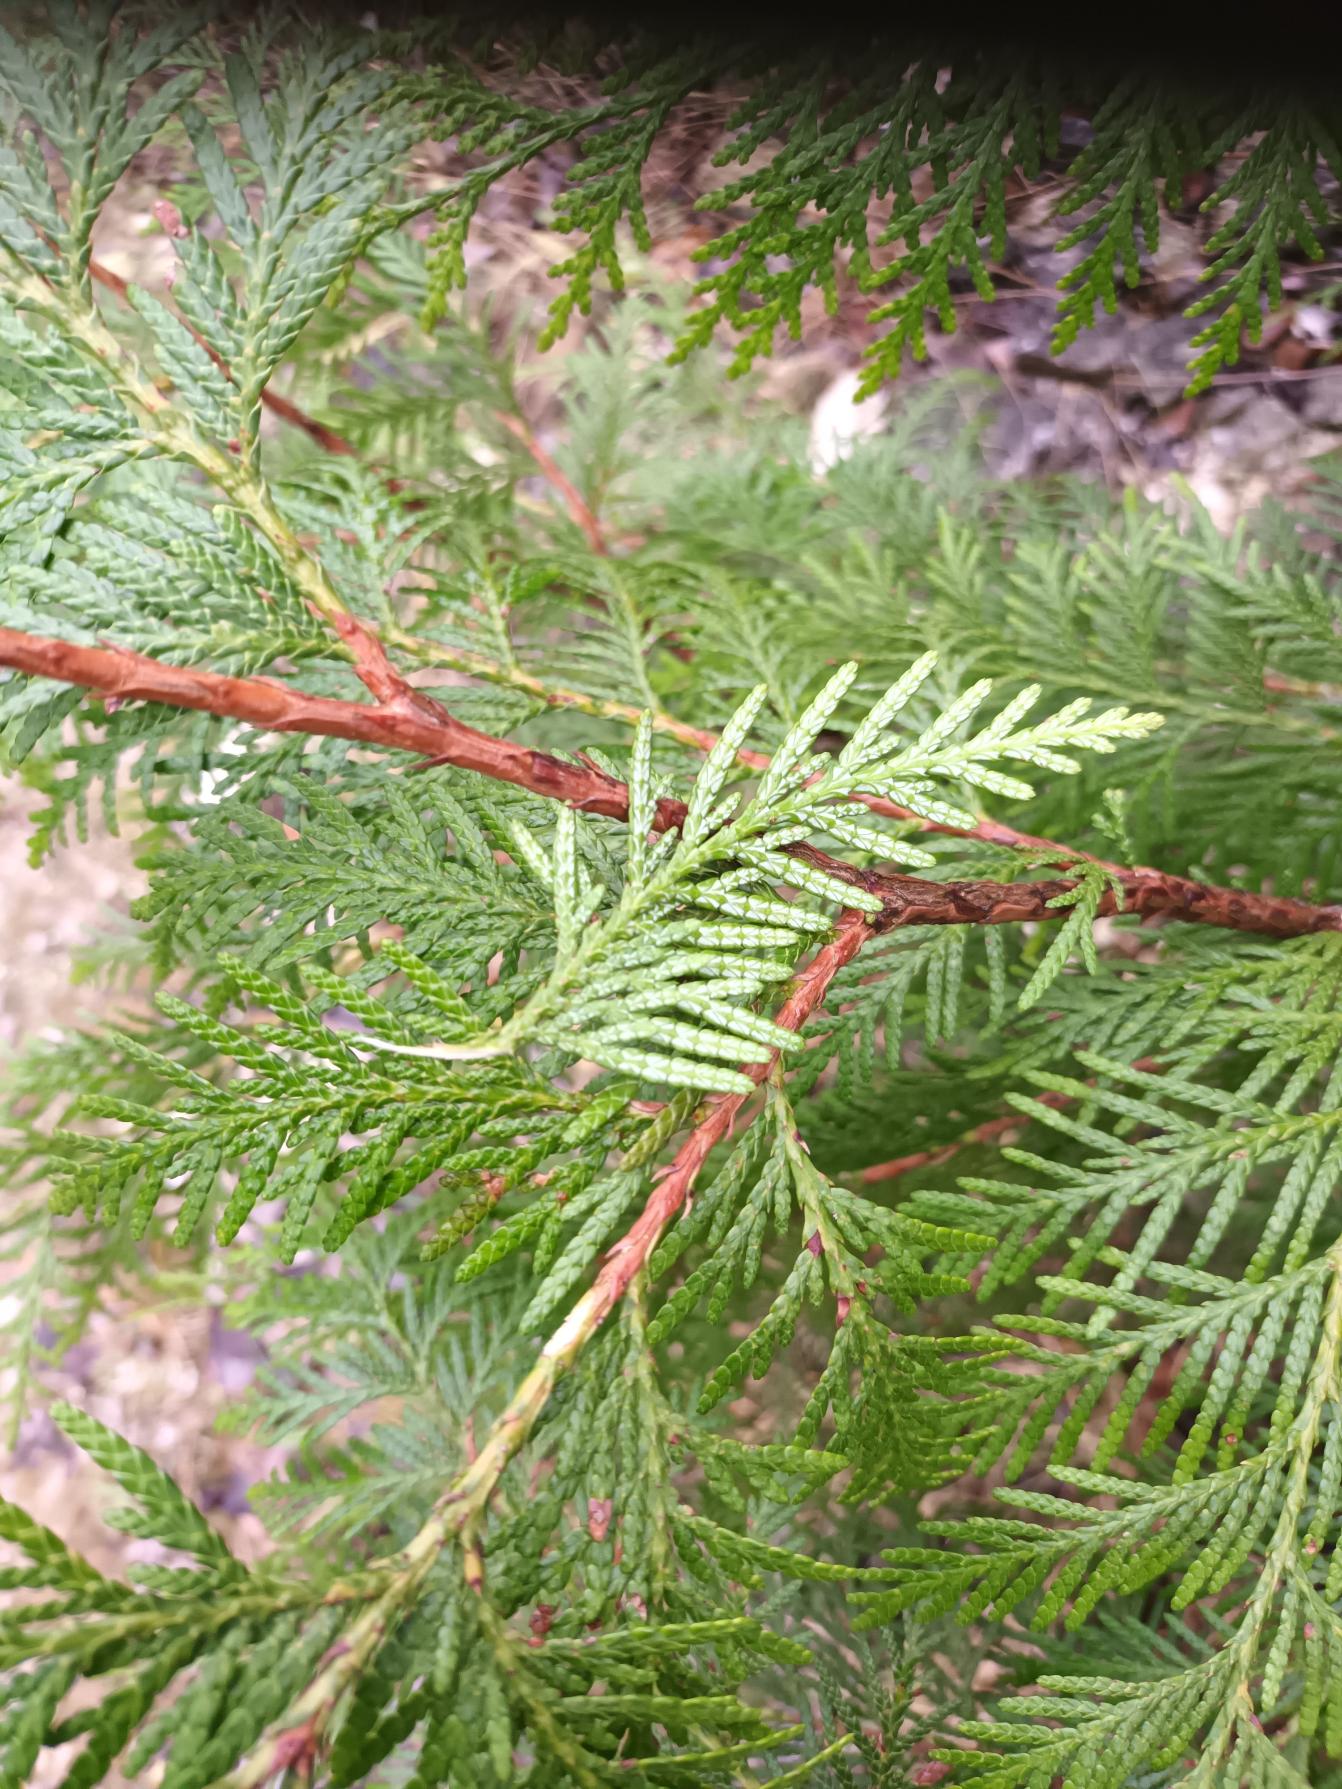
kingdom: Plantae
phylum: Tracheophyta
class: Pinopsida
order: Pinales
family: Cupressaceae
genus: Thuja
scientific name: Thuja plicata
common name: Kæmpe-thuja
